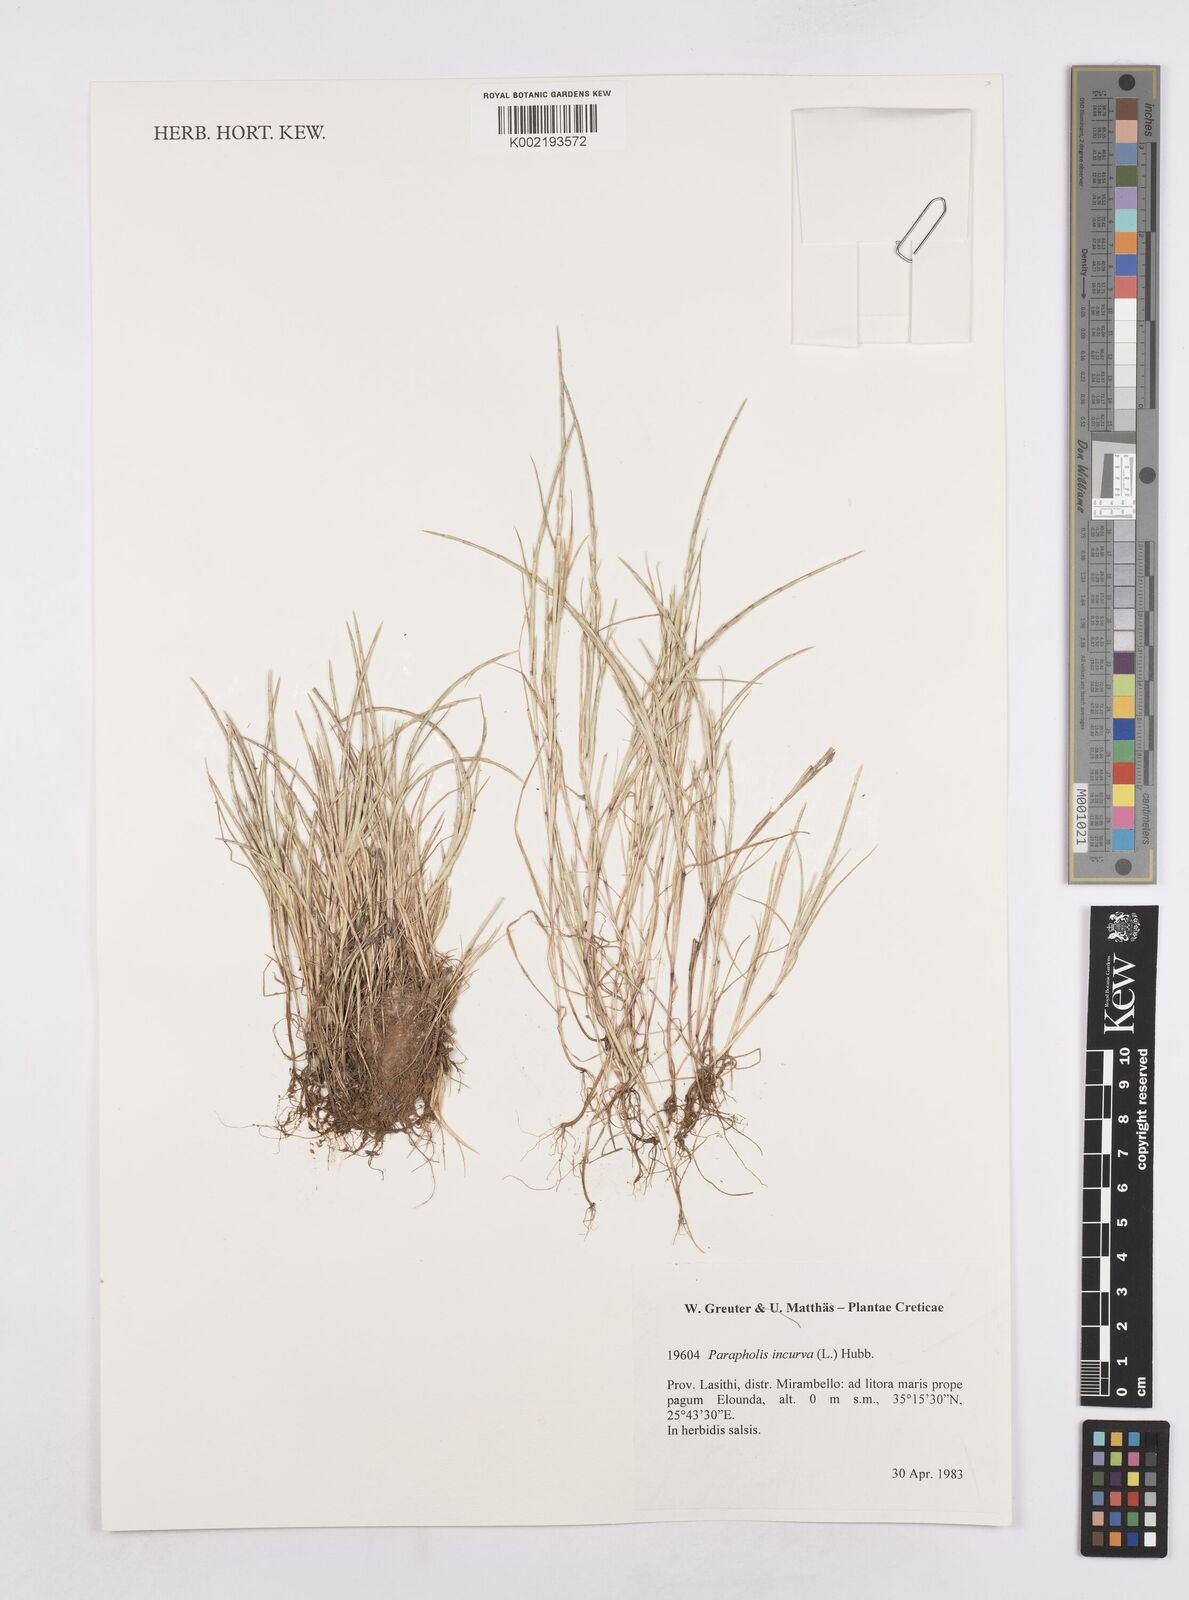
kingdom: Plantae
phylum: Tracheophyta
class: Liliopsida
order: Poales
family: Poaceae
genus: Parapholis
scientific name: Parapholis incurva
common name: Curved sicklegrass
